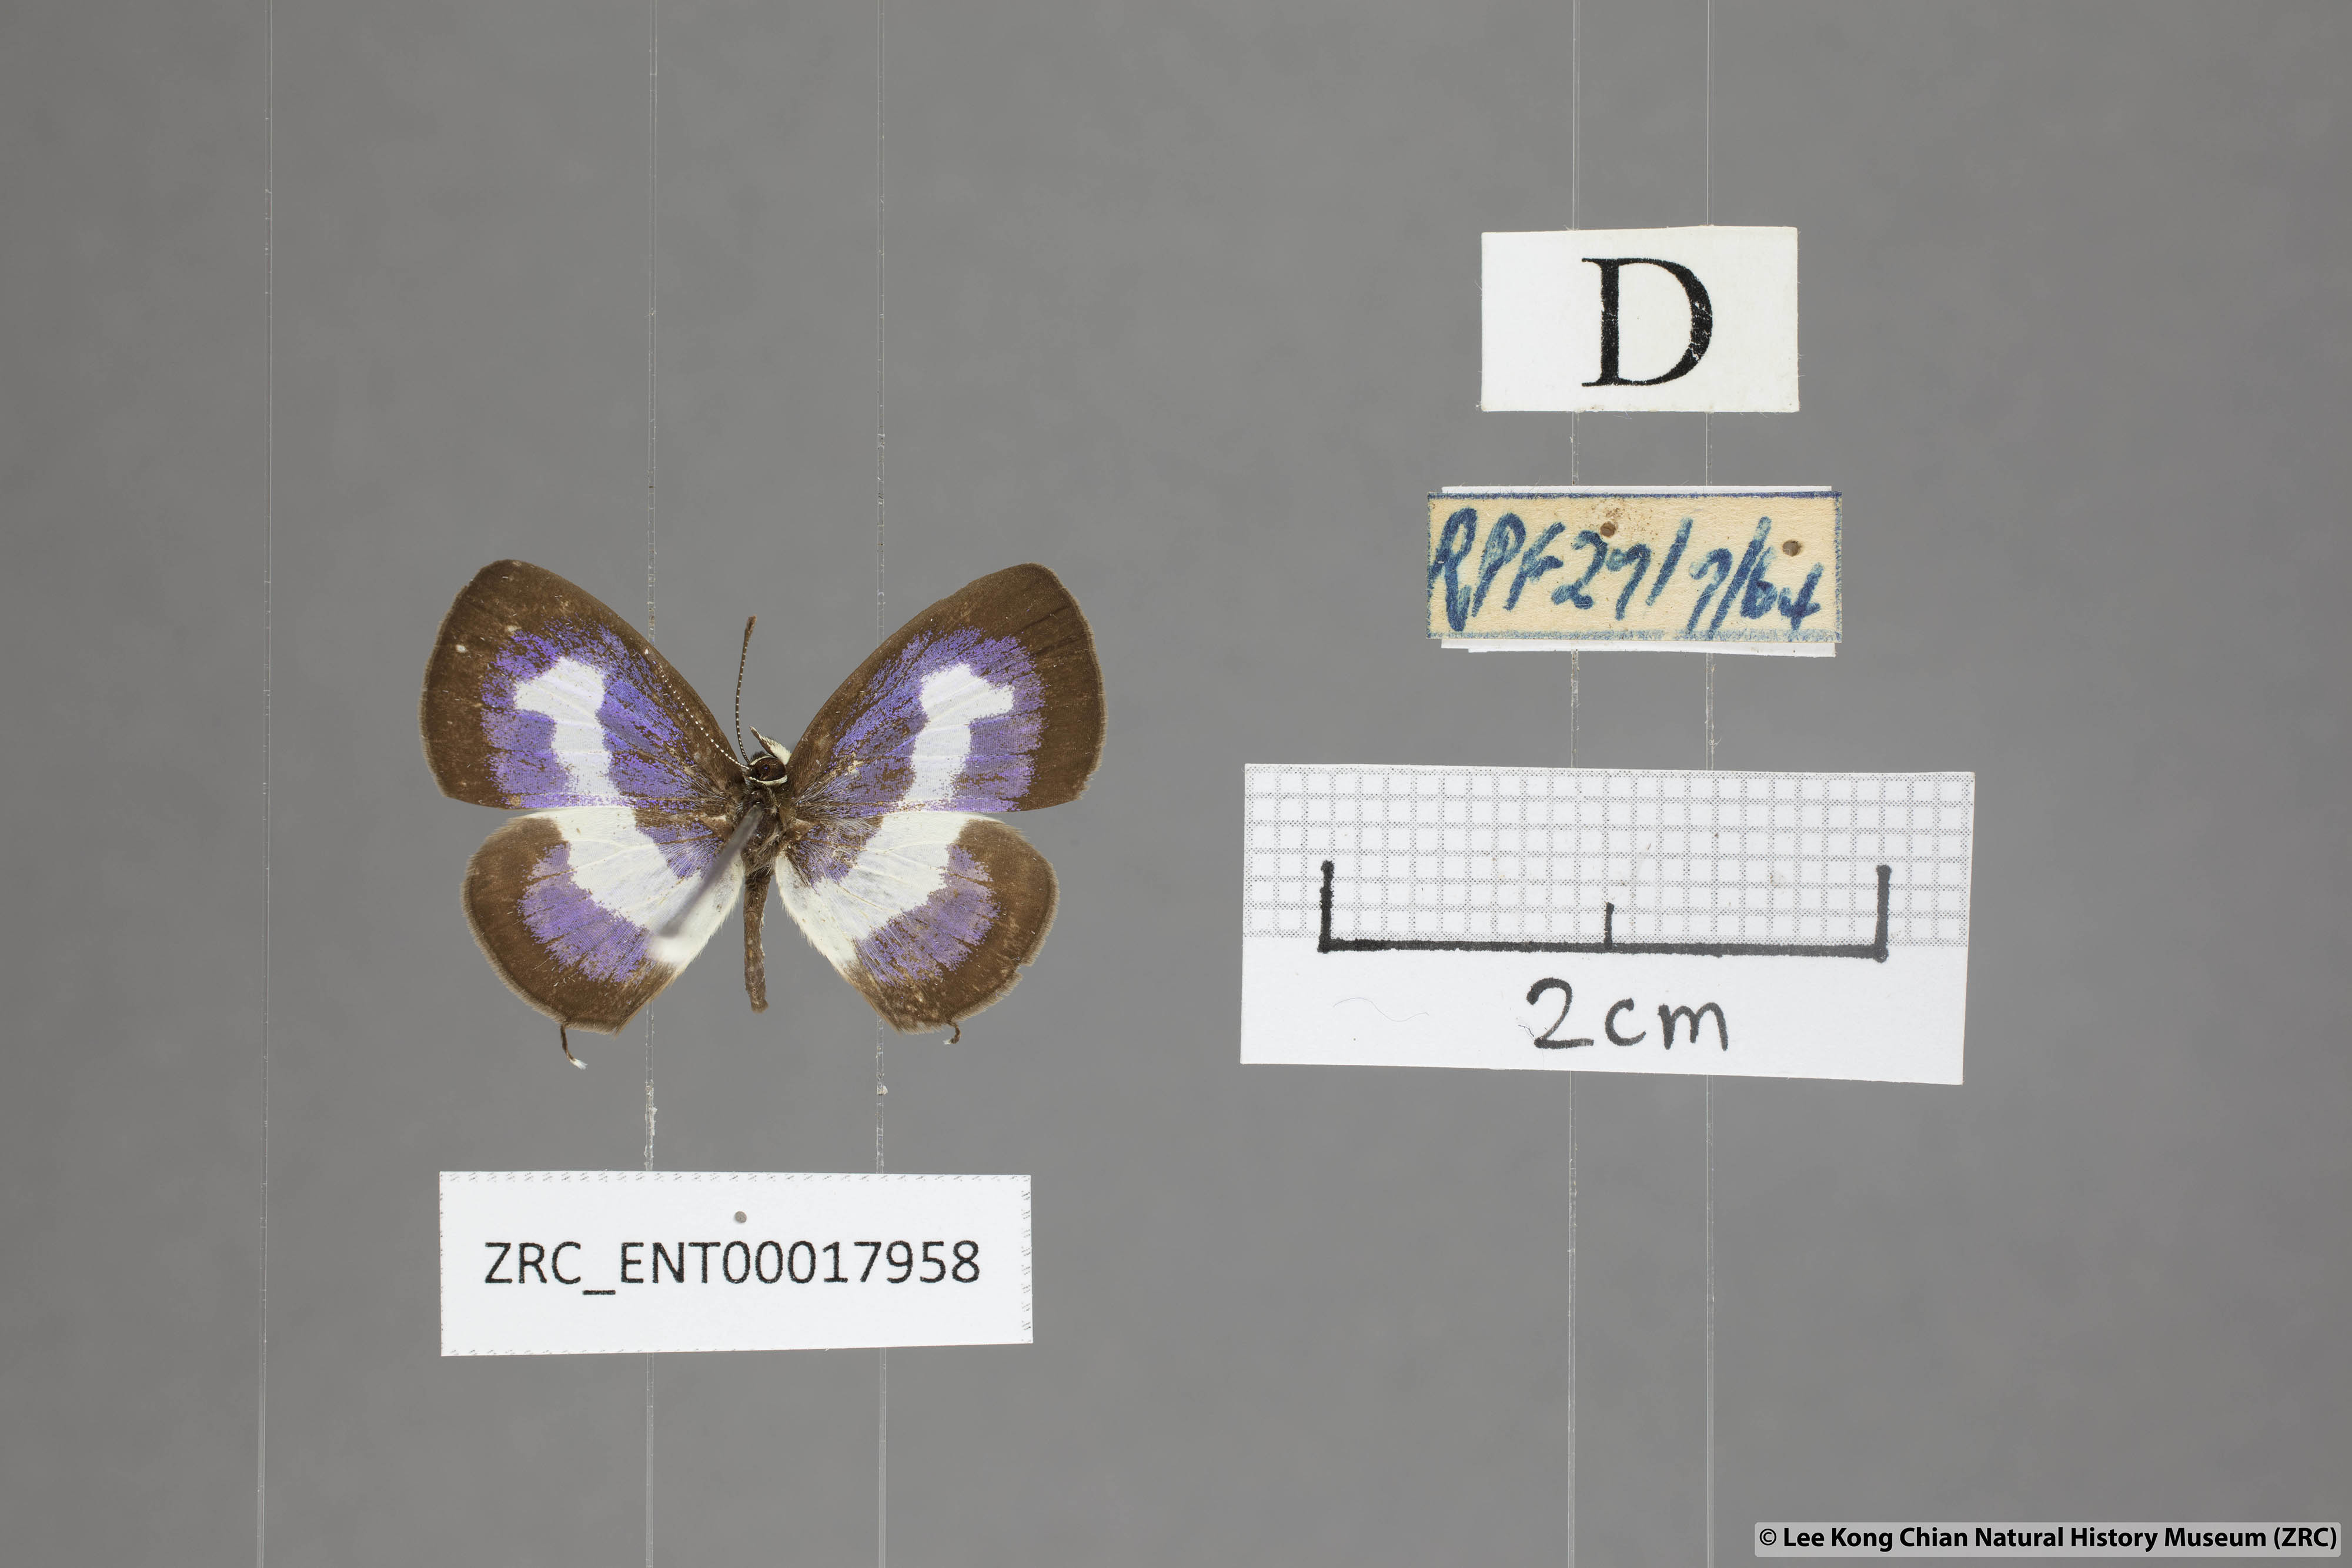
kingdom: Animalia
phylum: Arthropoda
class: Insecta
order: Lepidoptera
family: Lycaenidae
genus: Discolampa
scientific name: Discolampa ethion
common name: Banded blue pierrot
